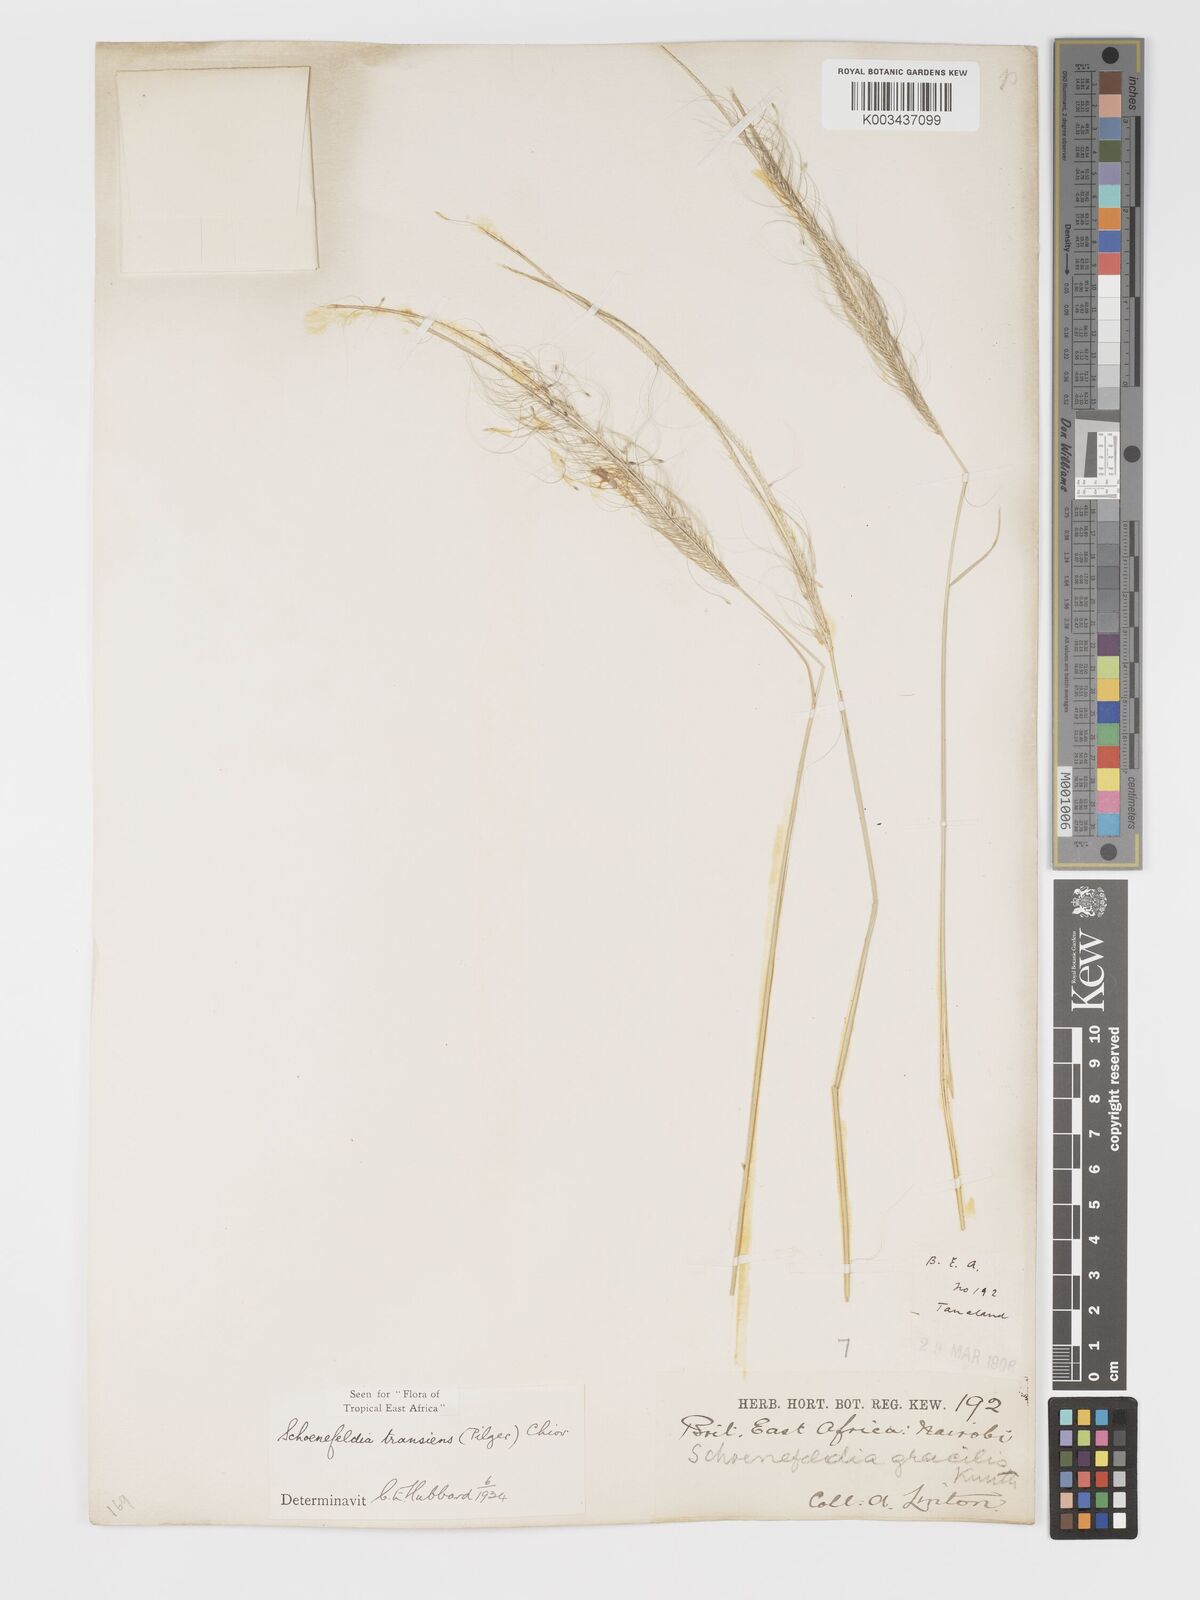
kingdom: Plantae
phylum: Tracheophyta
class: Liliopsida
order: Poales
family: Poaceae
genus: Schoenefeldia
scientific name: Schoenefeldia transiens
